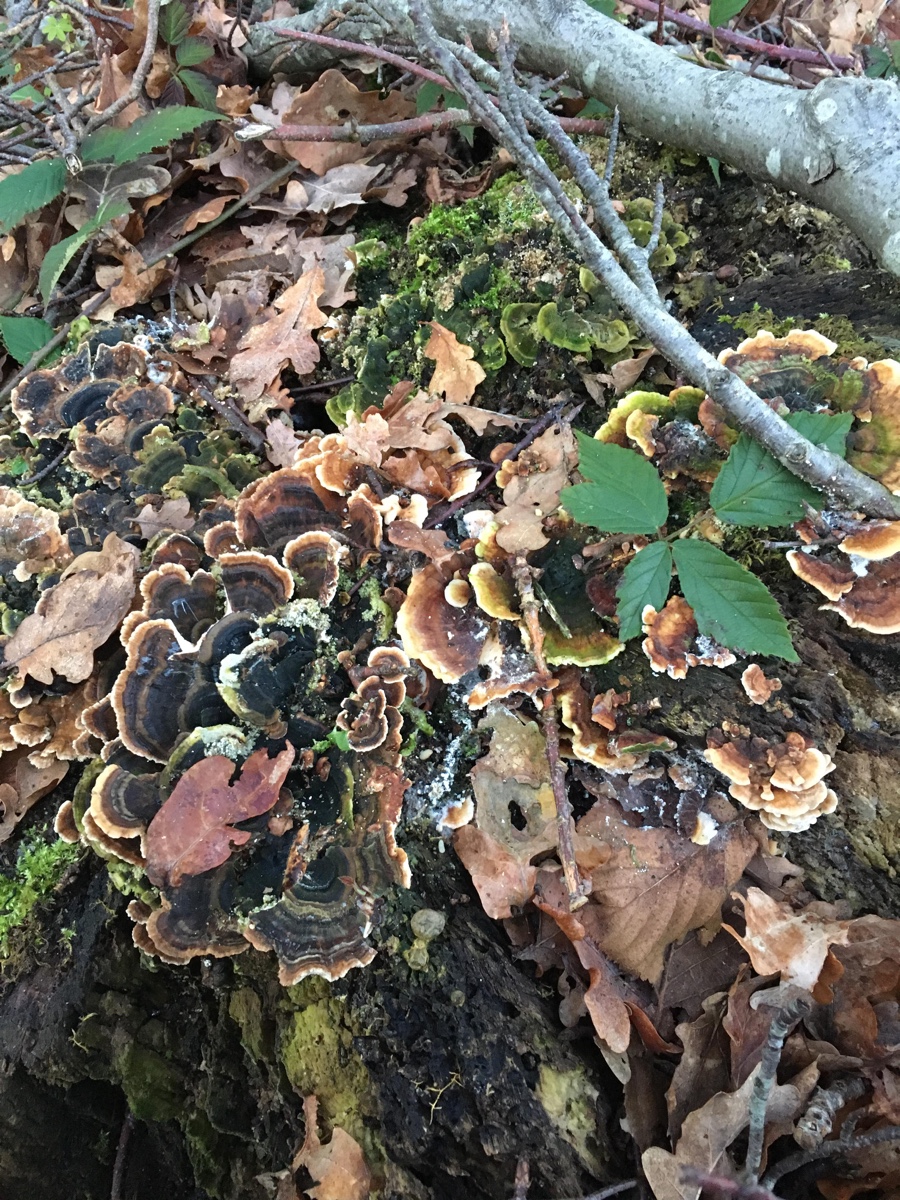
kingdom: Fungi
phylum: Basidiomycota
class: Agaricomycetes
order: Polyporales
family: Polyporaceae
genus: Trametes
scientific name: Trametes versicolor
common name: broget læderporesvamp
